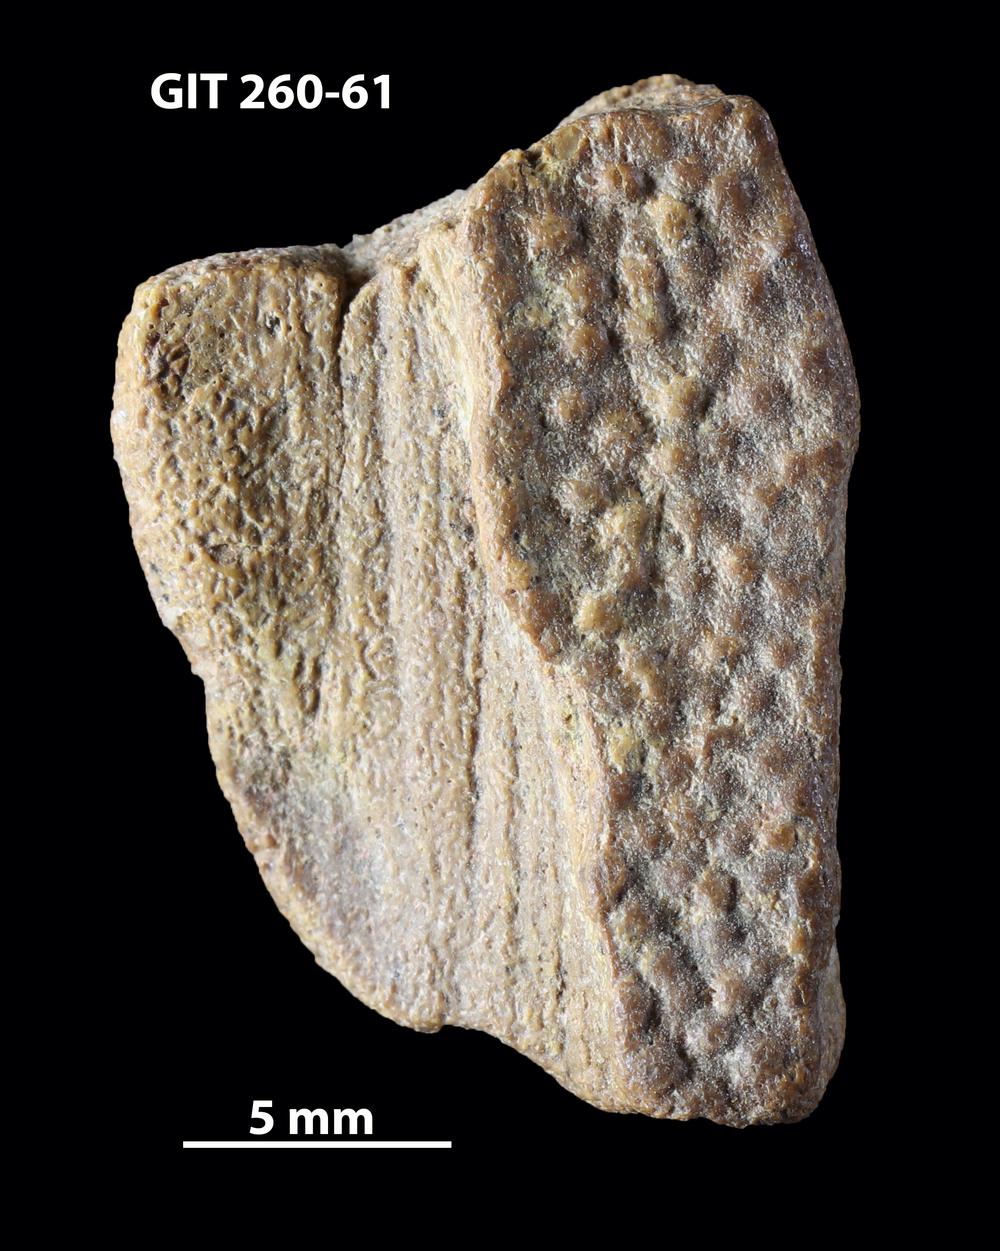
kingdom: Animalia
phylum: Chordata
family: Homostiidae
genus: Homostius
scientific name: Homostius
